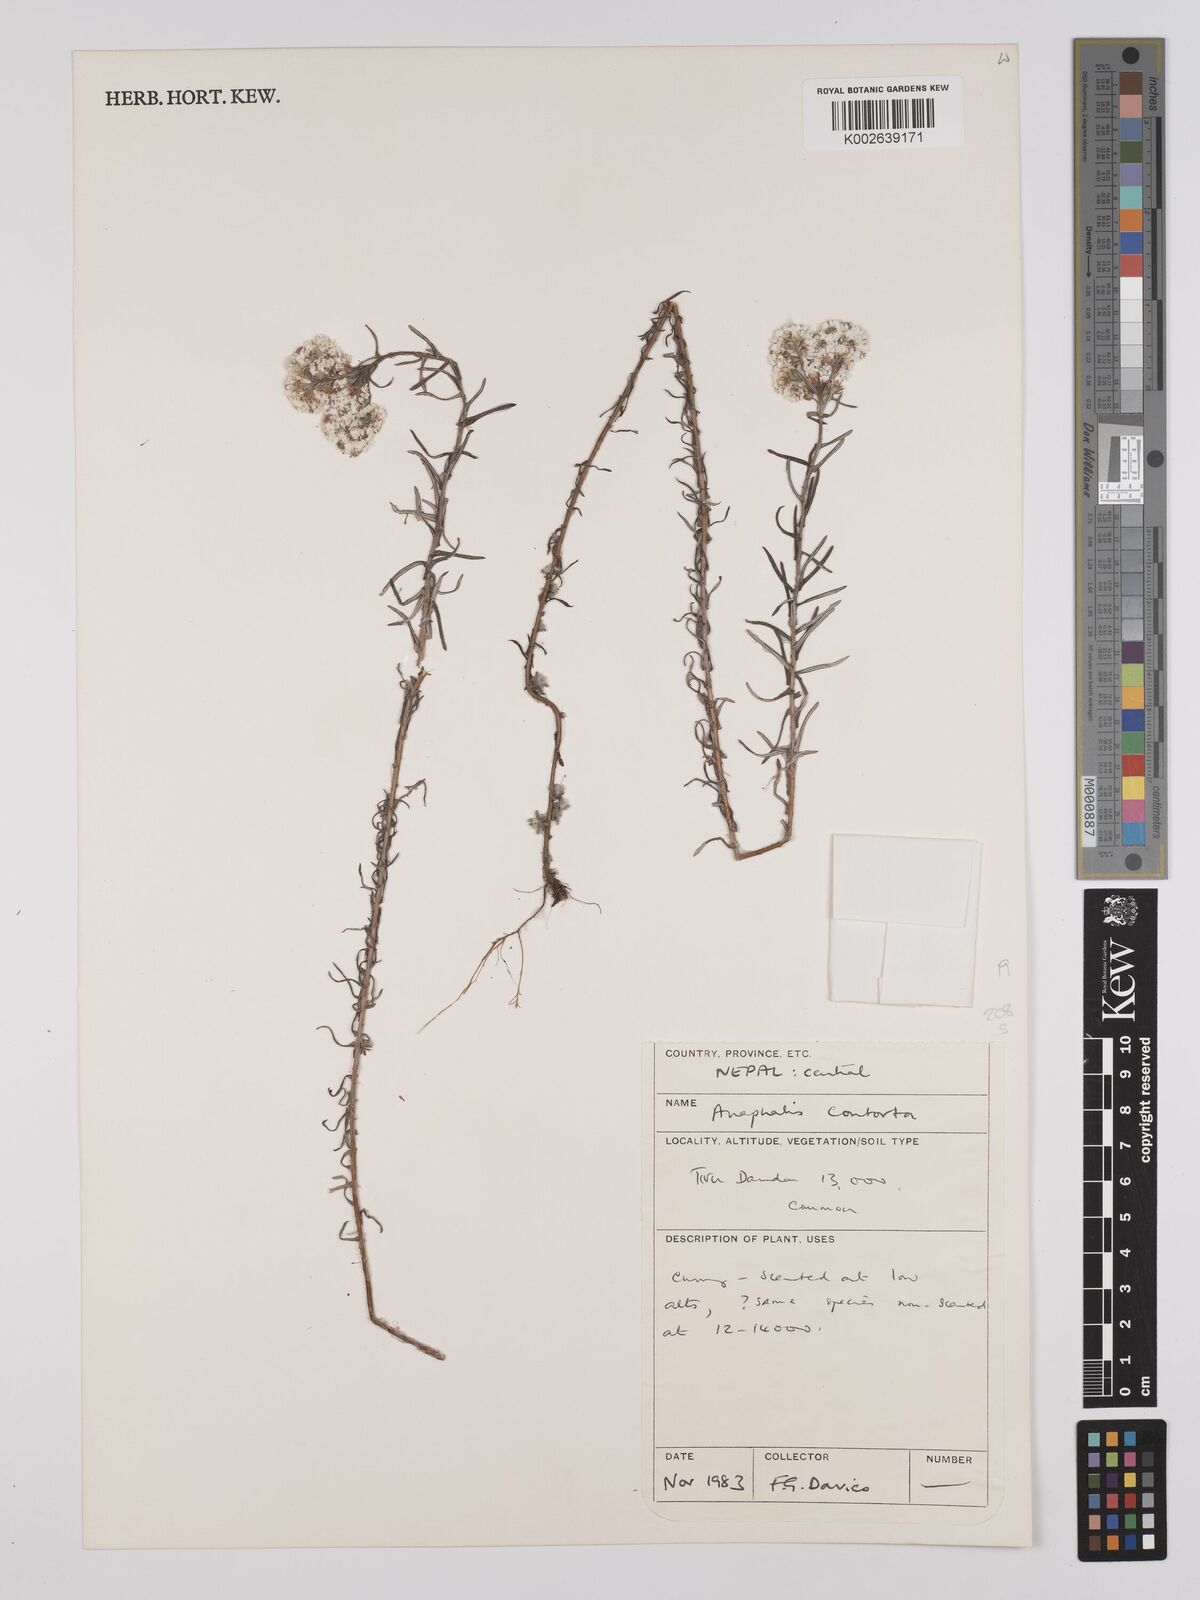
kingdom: Plantae
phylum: Tracheophyta
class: Magnoliopsida
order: Asterales
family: Asteraceae
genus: Anaphalis
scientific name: Anaphalis contorta
